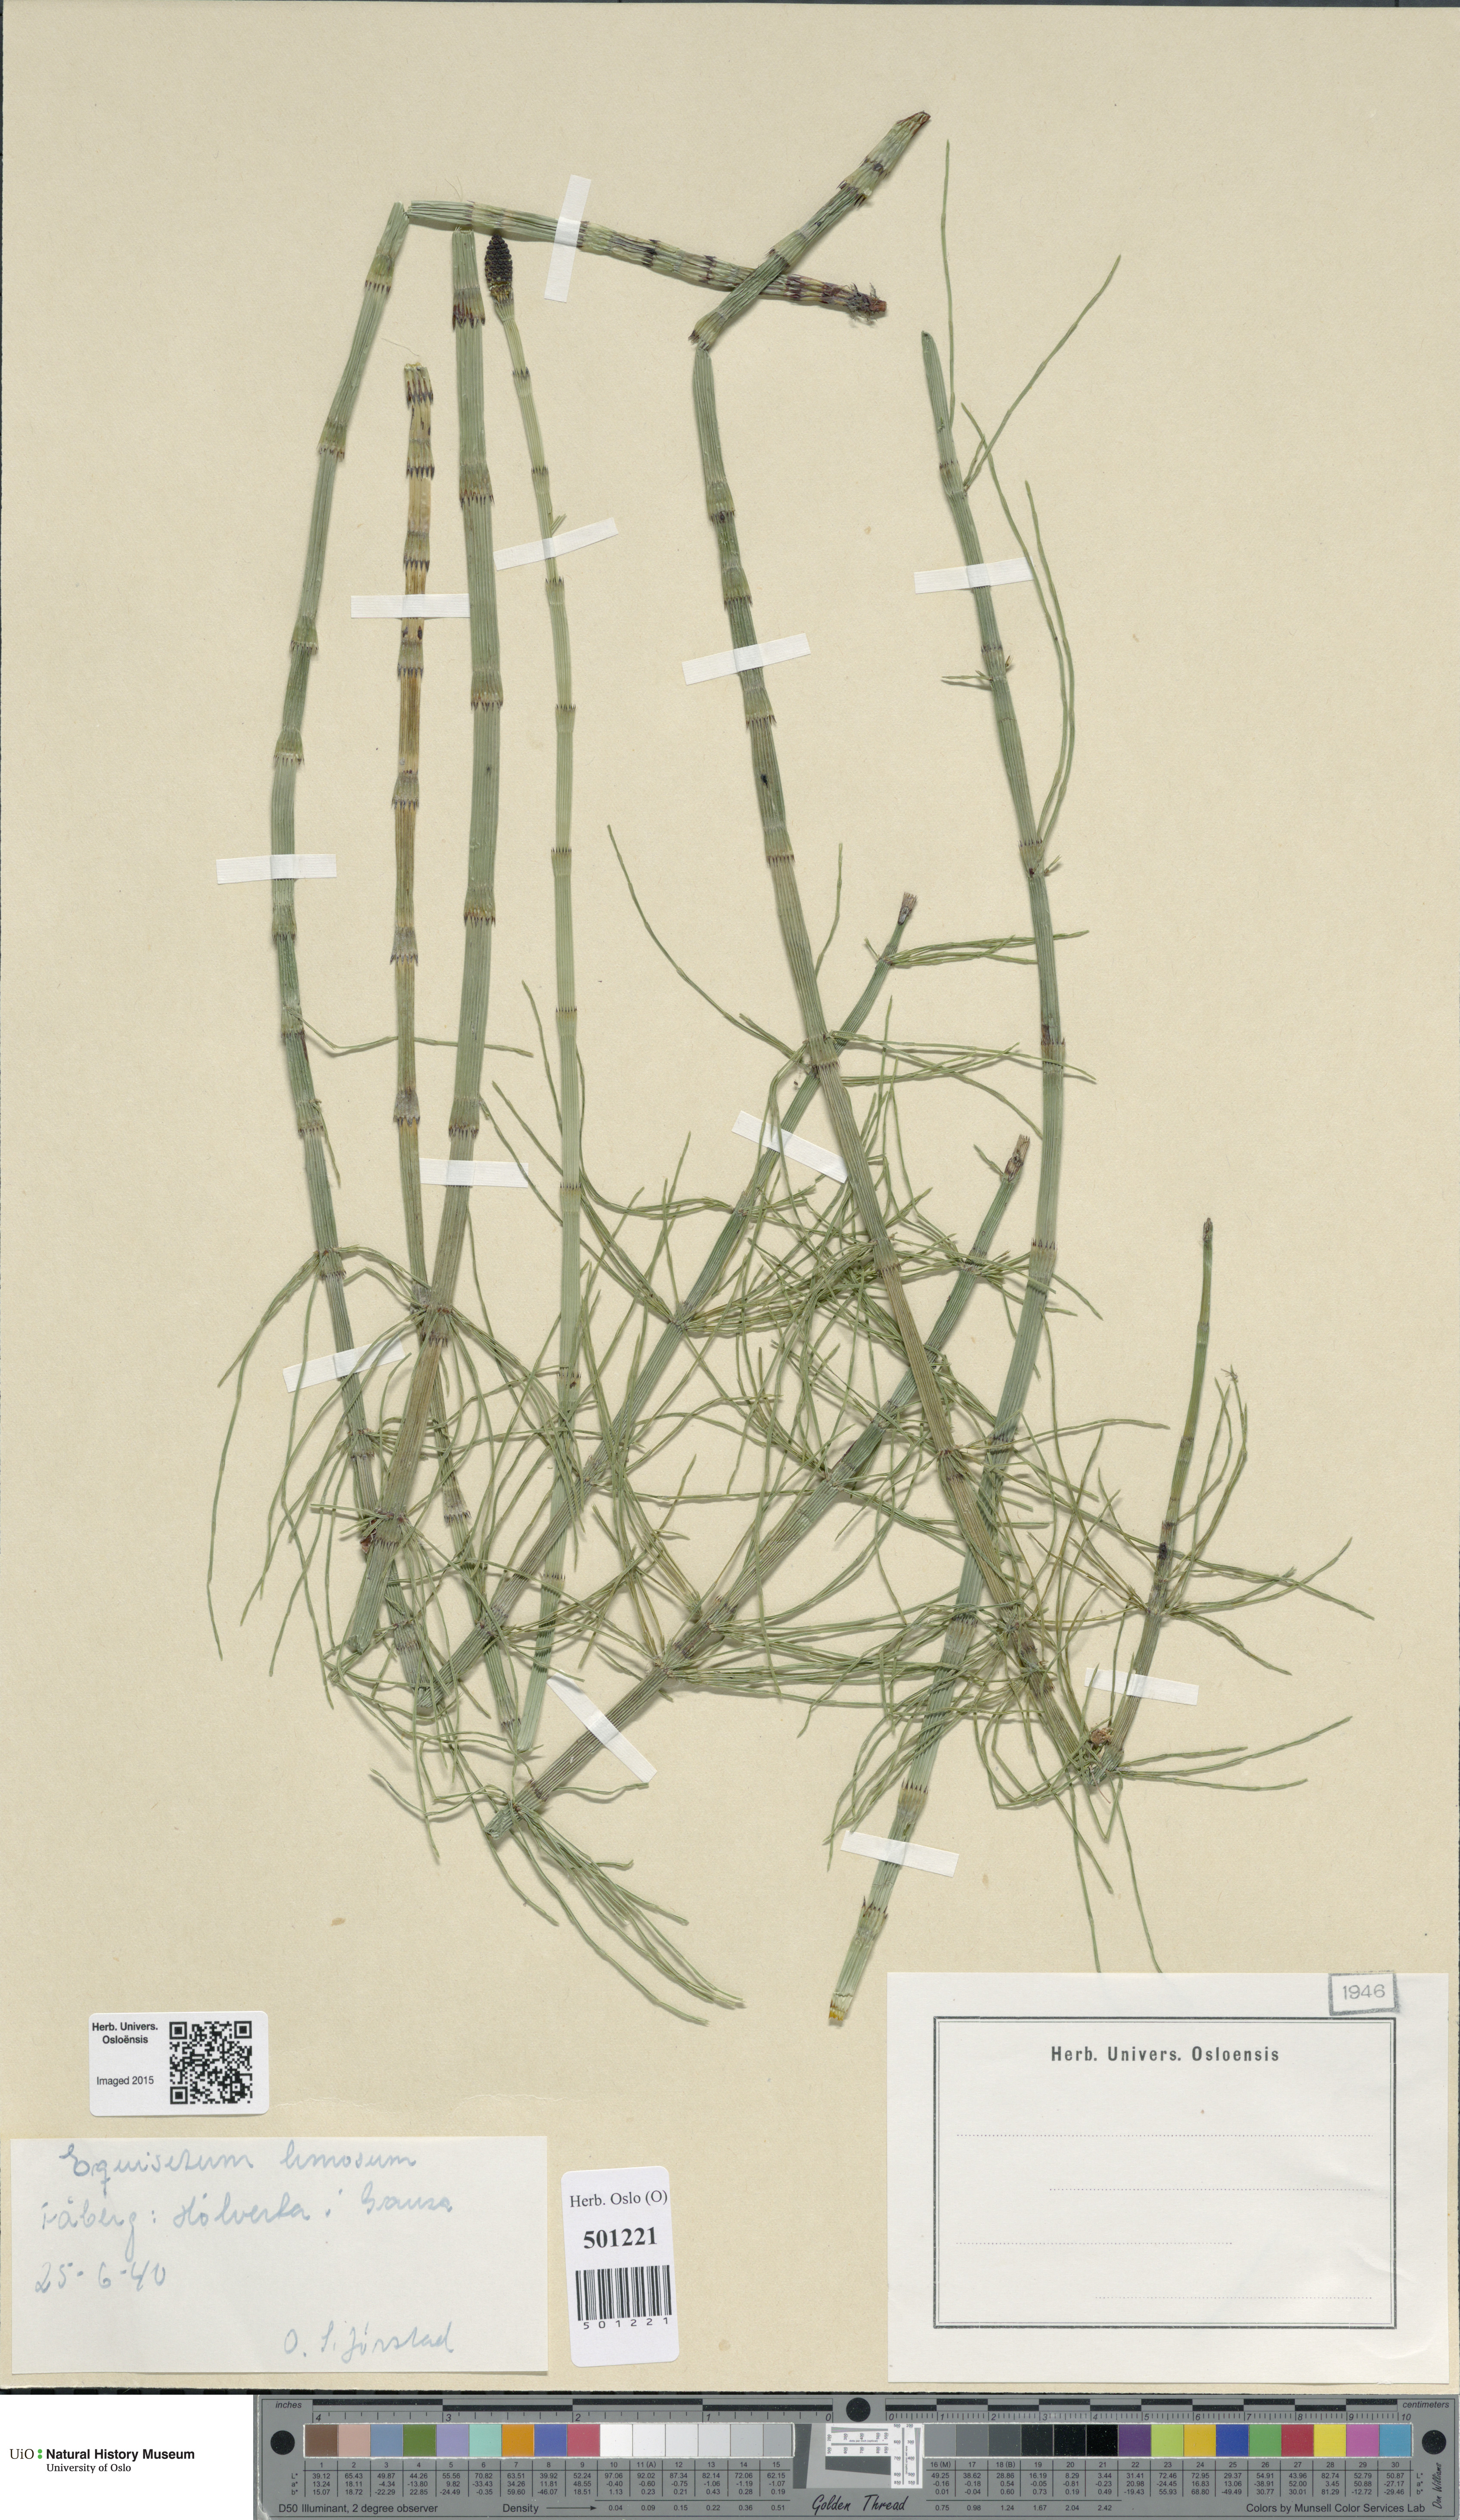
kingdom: Plantae
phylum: Tracheophyta
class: Polypodiopsida
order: Equisetales
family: Equisetaceae
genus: Equisetum
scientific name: Equisetum fluviatile
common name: Water horsetail
